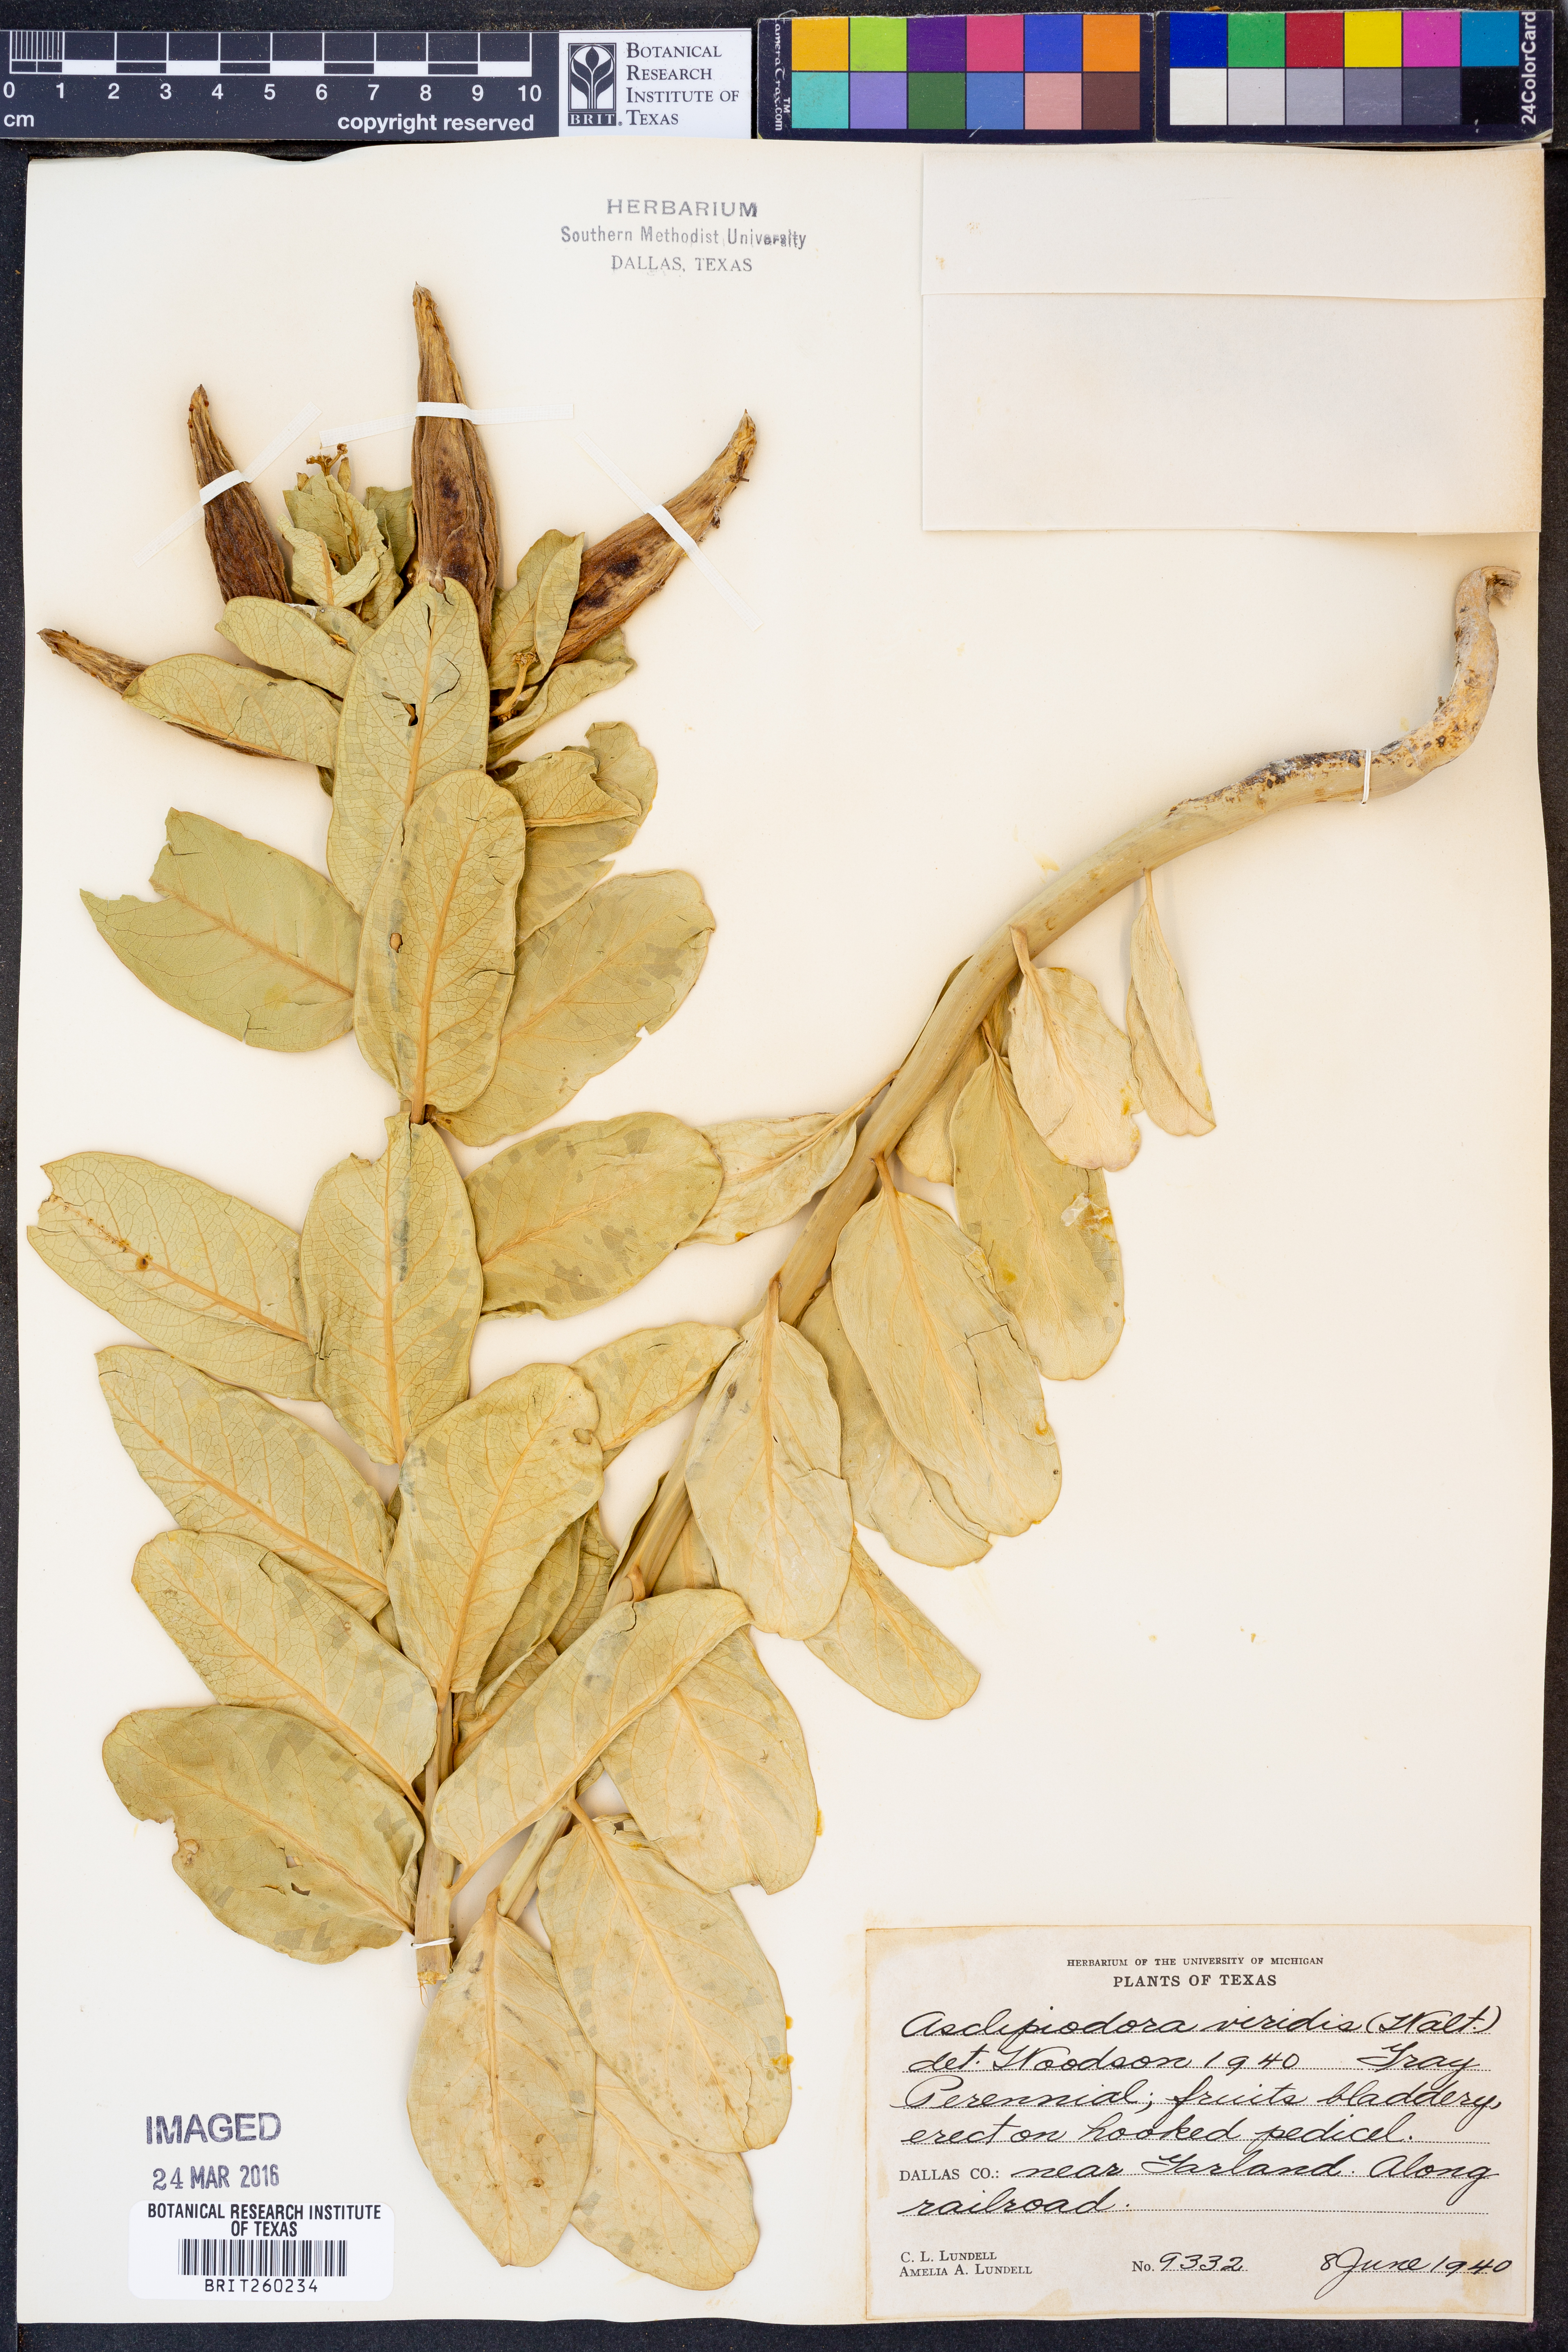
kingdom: Plantae
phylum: Tracheophyta
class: Magnoliopsida
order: Gentianales
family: Apocynaceae
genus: Asclepias
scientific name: Asclepias viridis
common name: Antelope-horns
